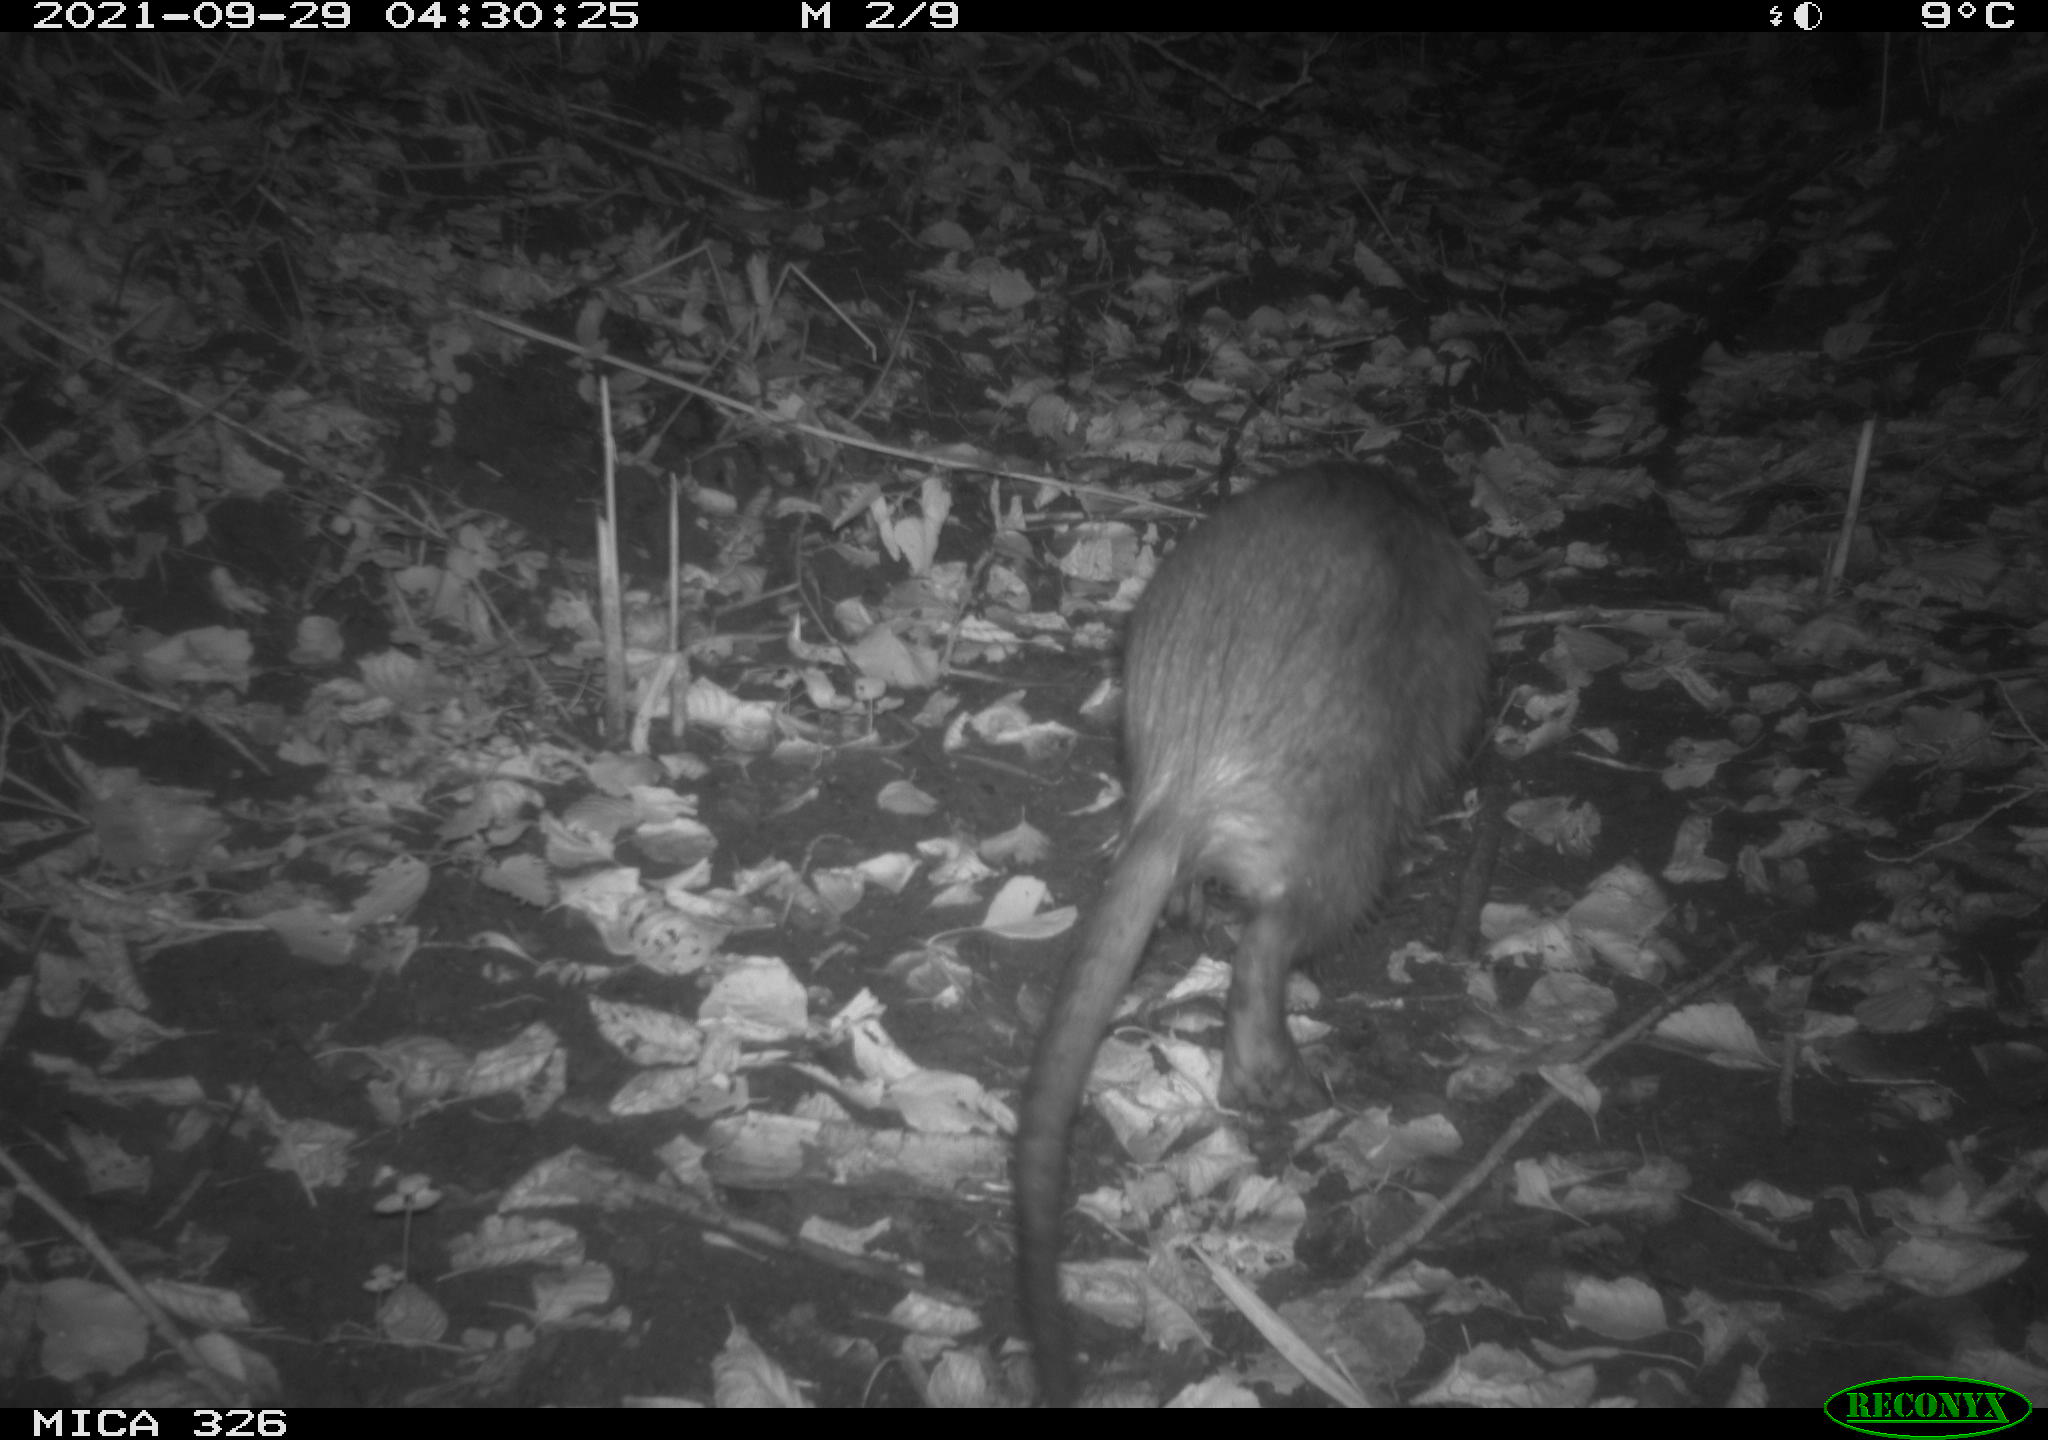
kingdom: Animalia
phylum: Chordata
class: Mammalia
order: Rodentia
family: Myocastoridae
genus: Myocastor
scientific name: Myocastor coypus
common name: Coypu
